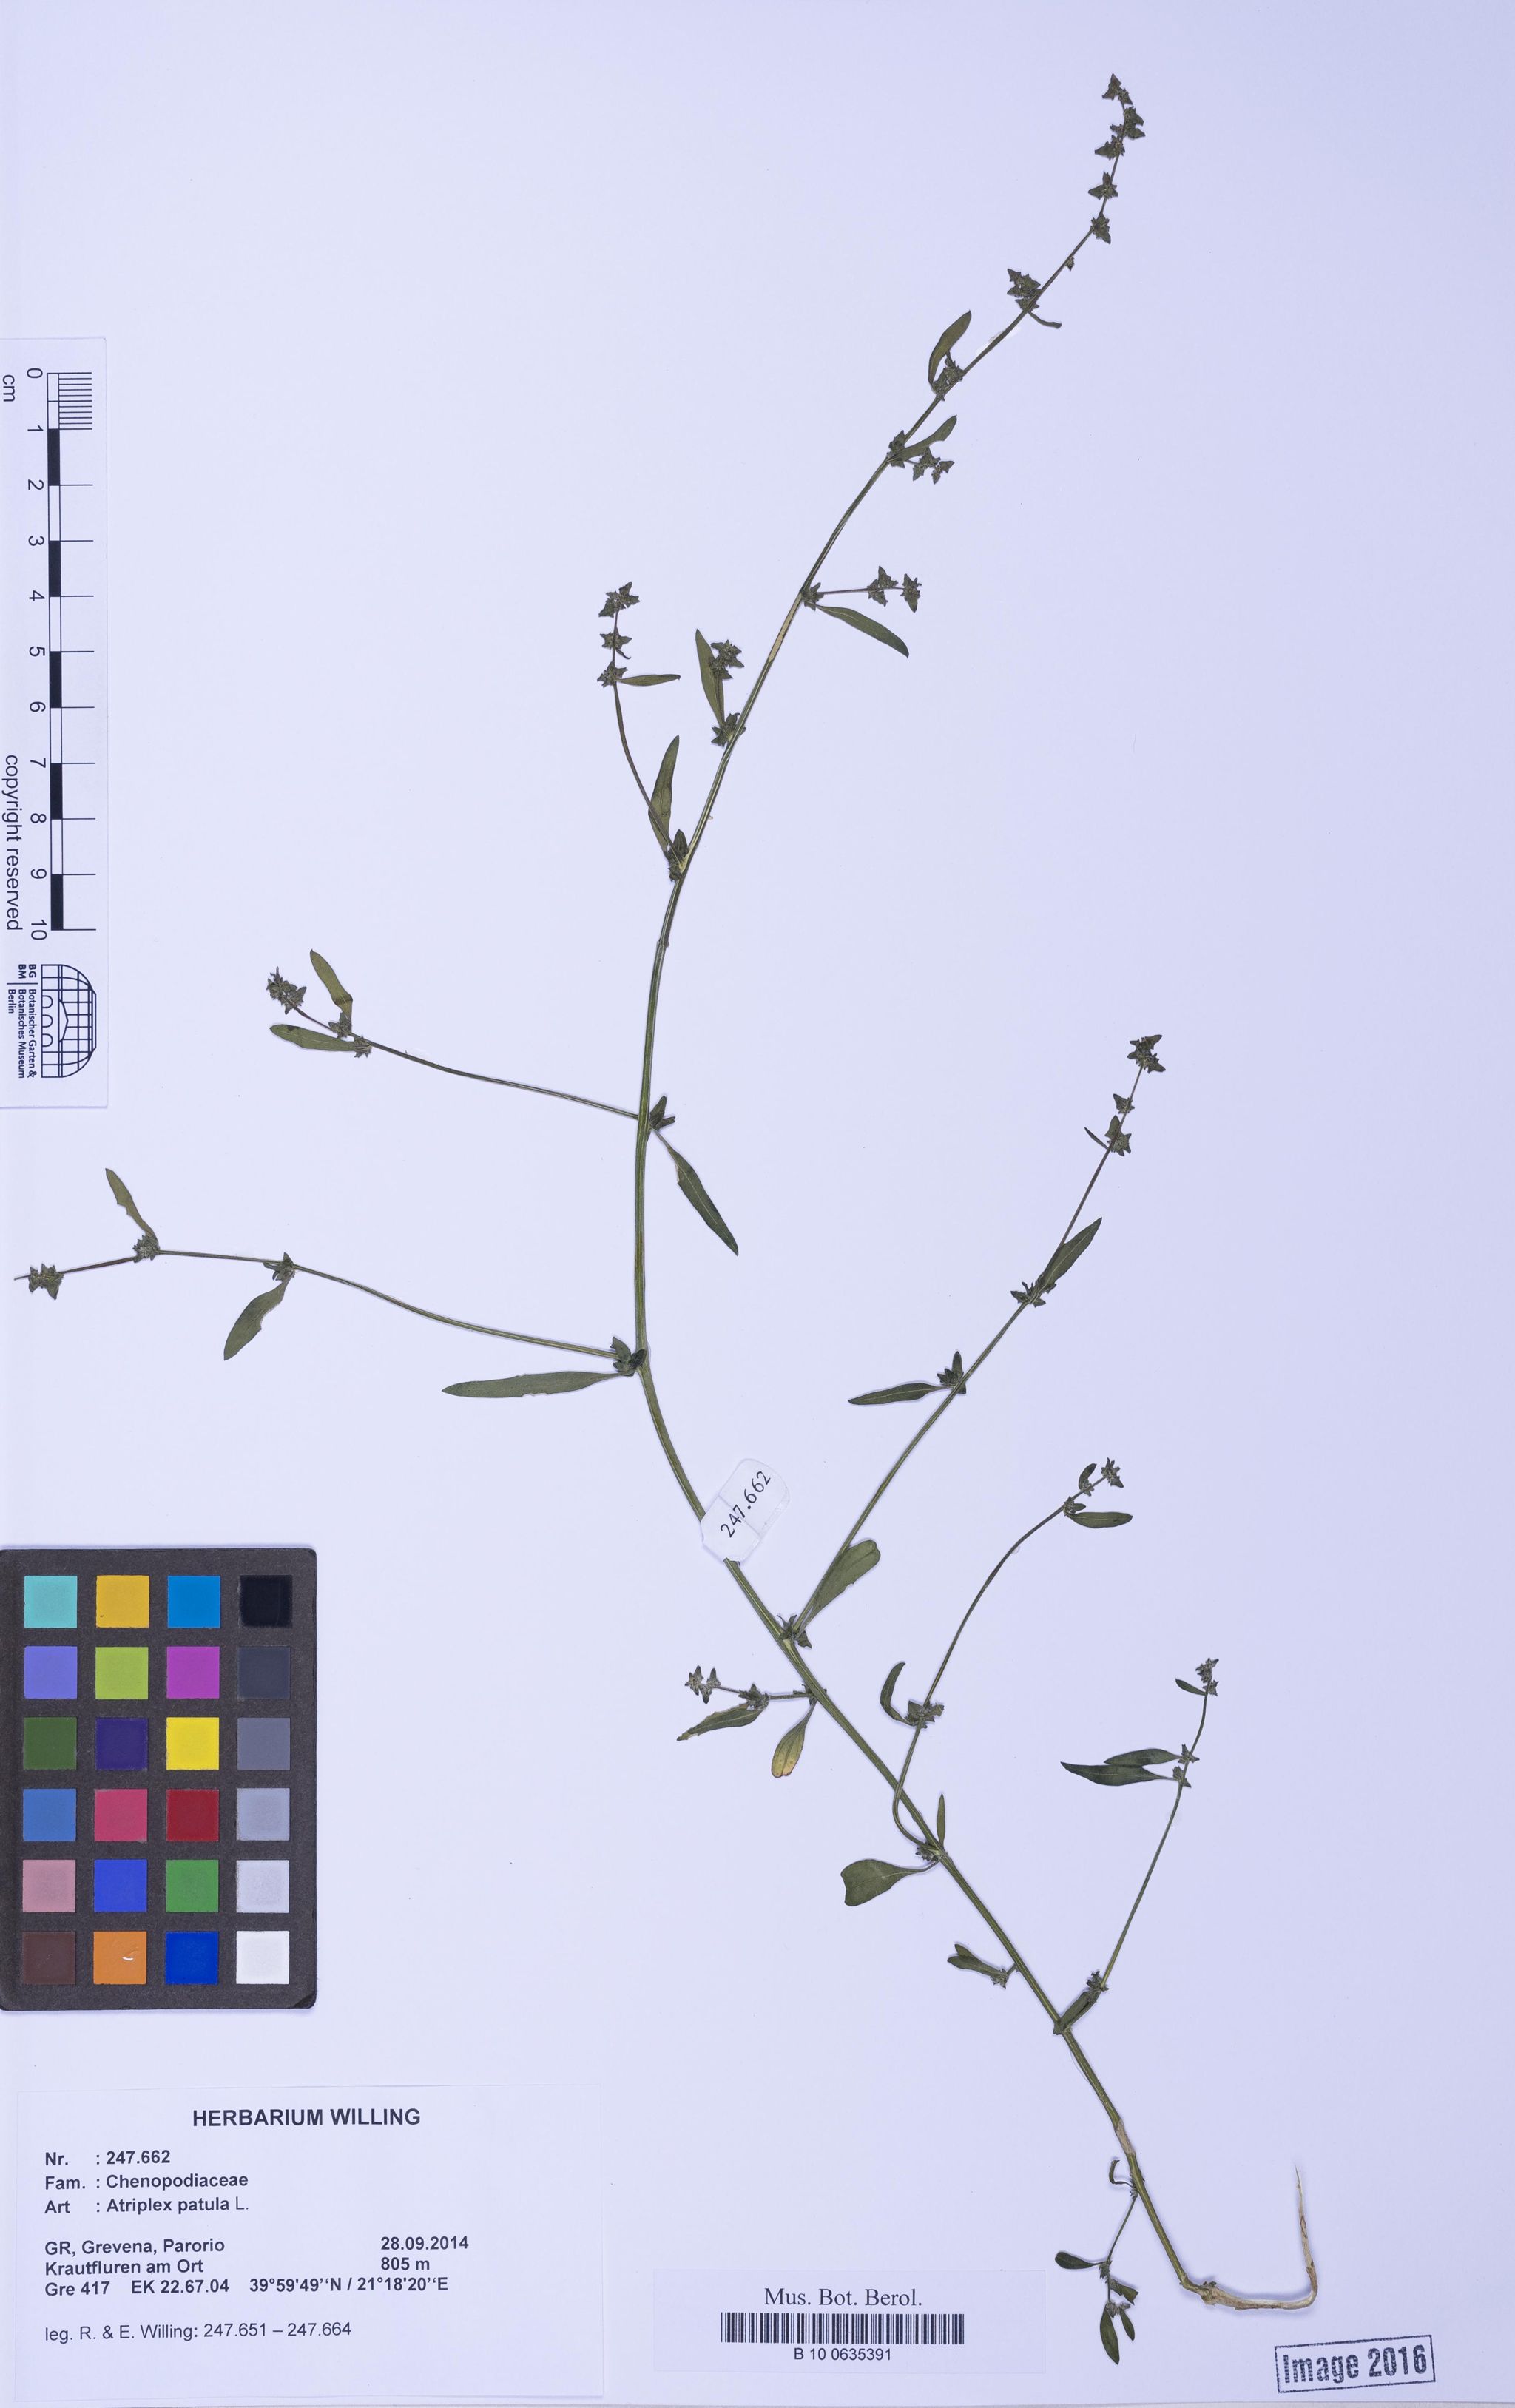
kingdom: Plantae
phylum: Tracheophyta
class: Magnoliopsida
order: Caryophyllales
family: Amaranthaceae
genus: Atriplex
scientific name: Atriplex patula
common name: Common orache
